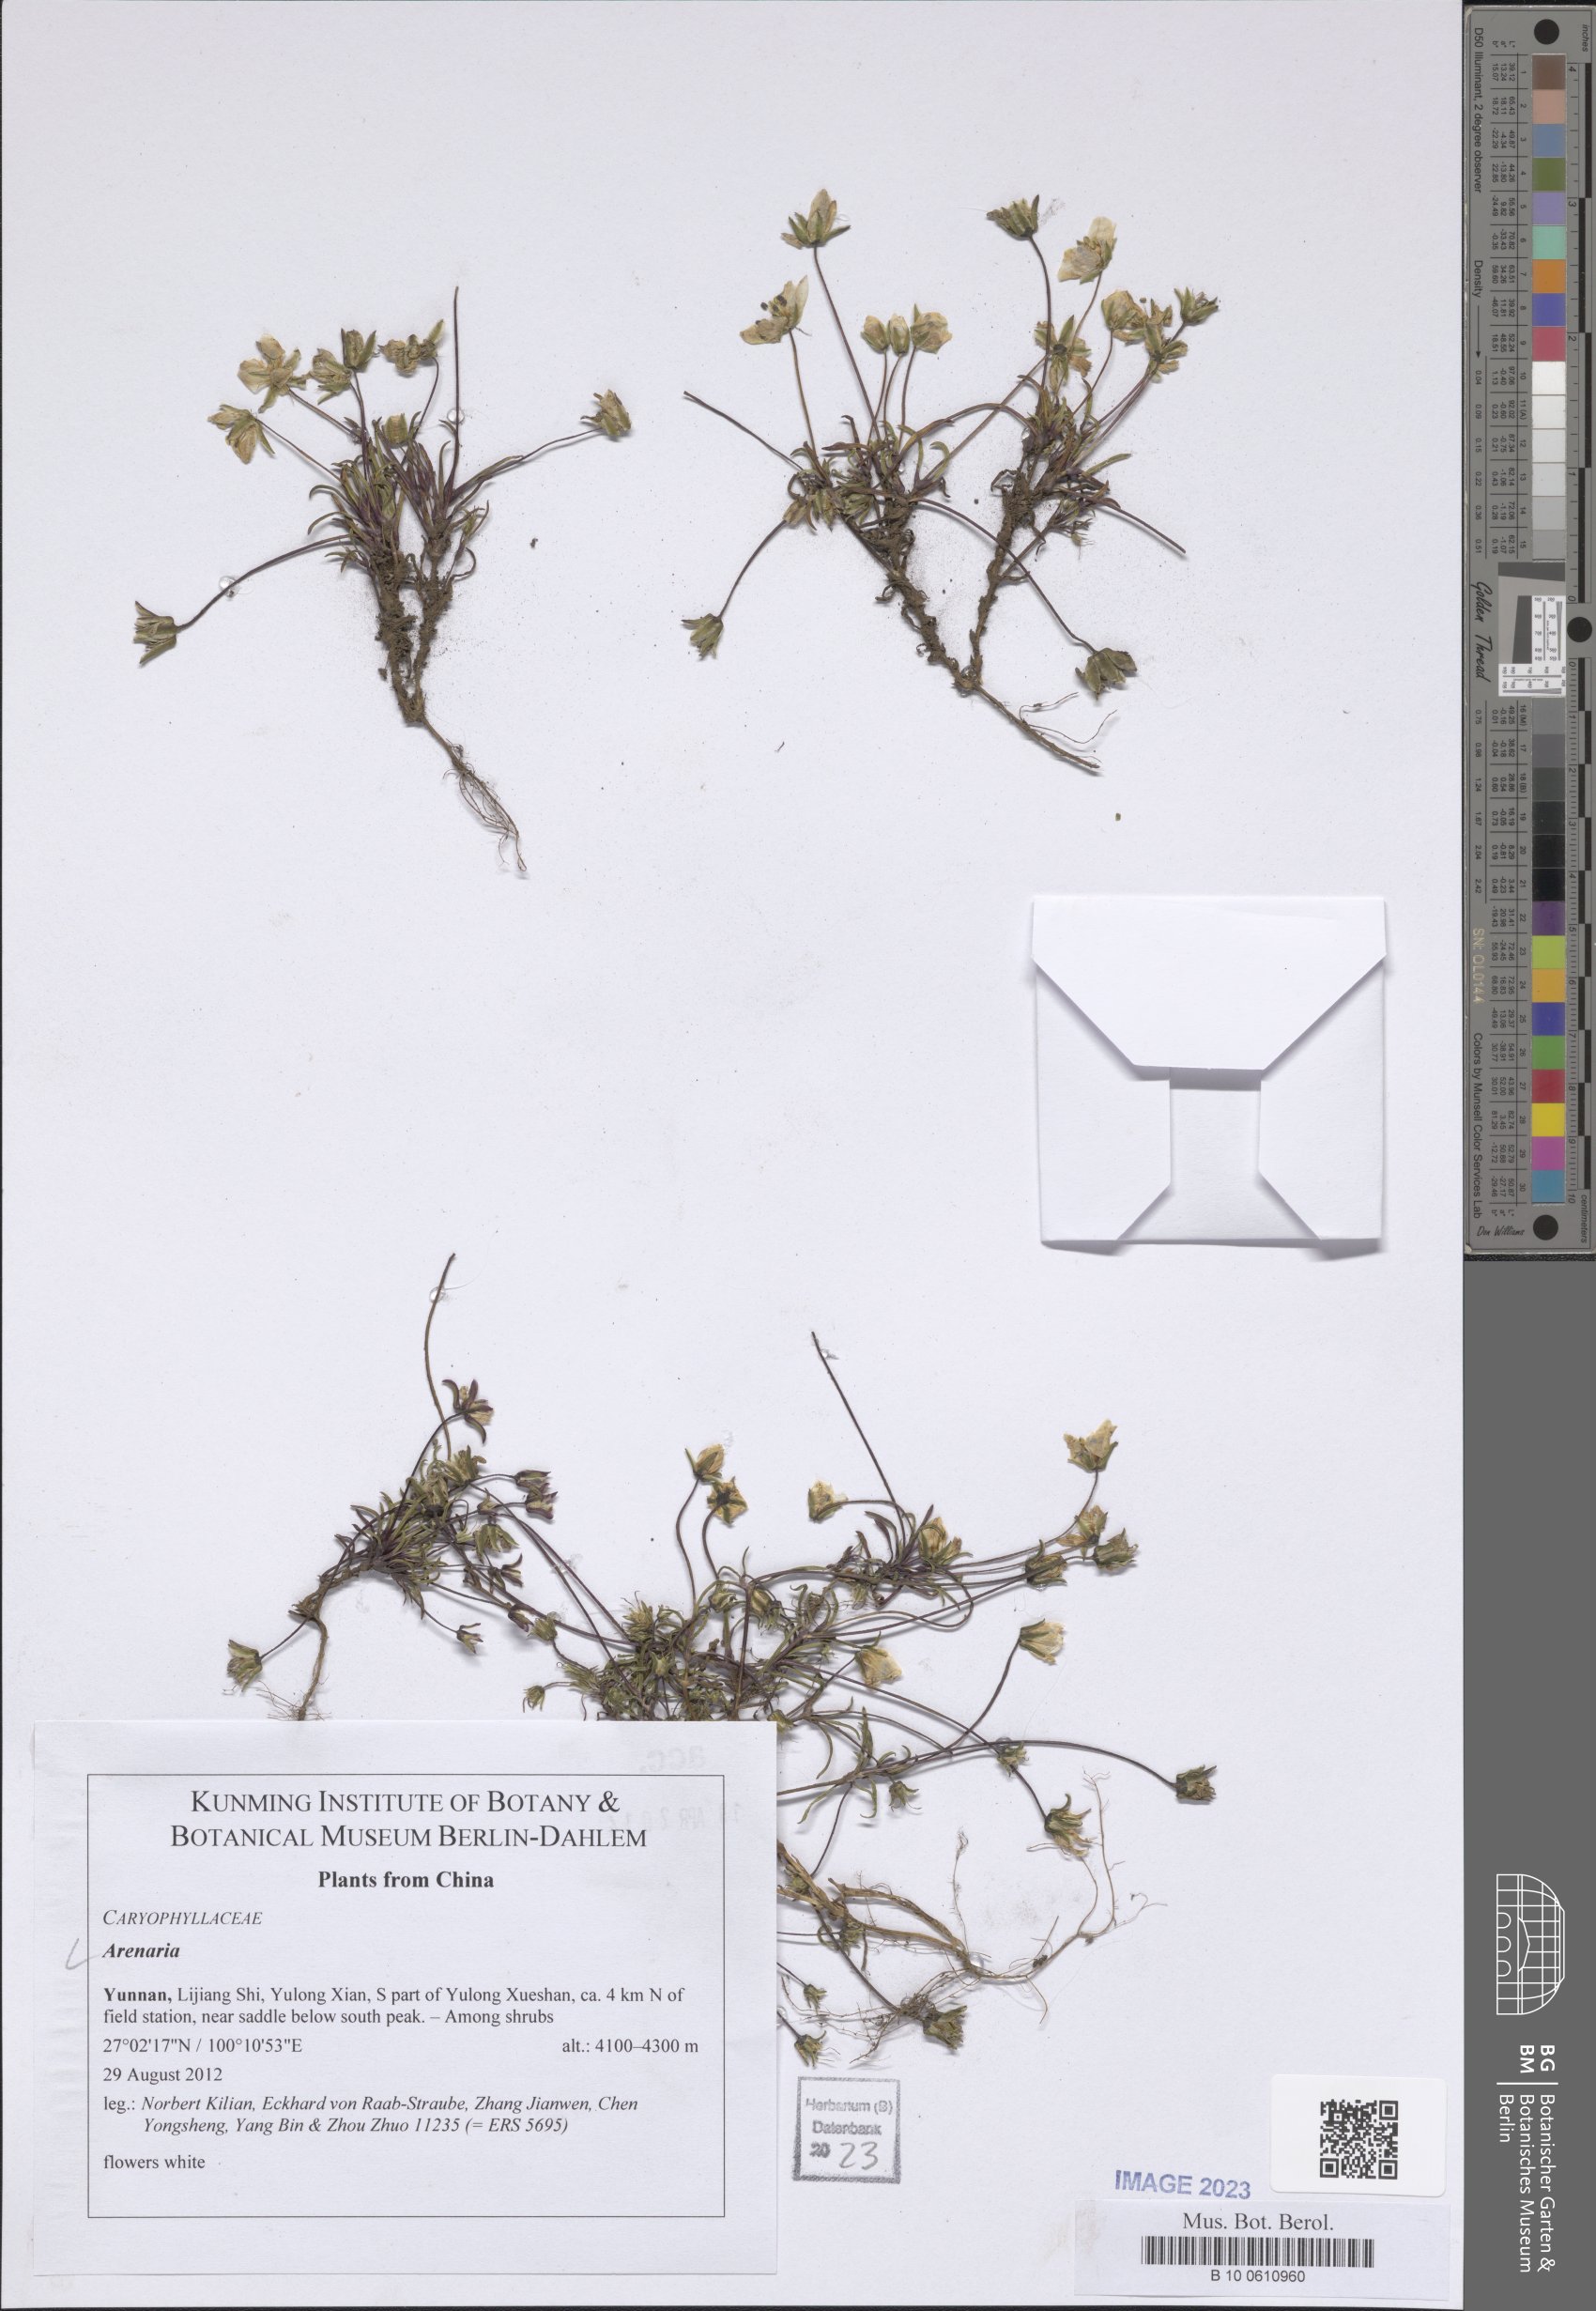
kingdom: Plantae
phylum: Tracheophyta
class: Magnoliopsida
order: Caryophyllales
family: Caryophyllaceae
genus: Arenaria
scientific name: Arenaria
